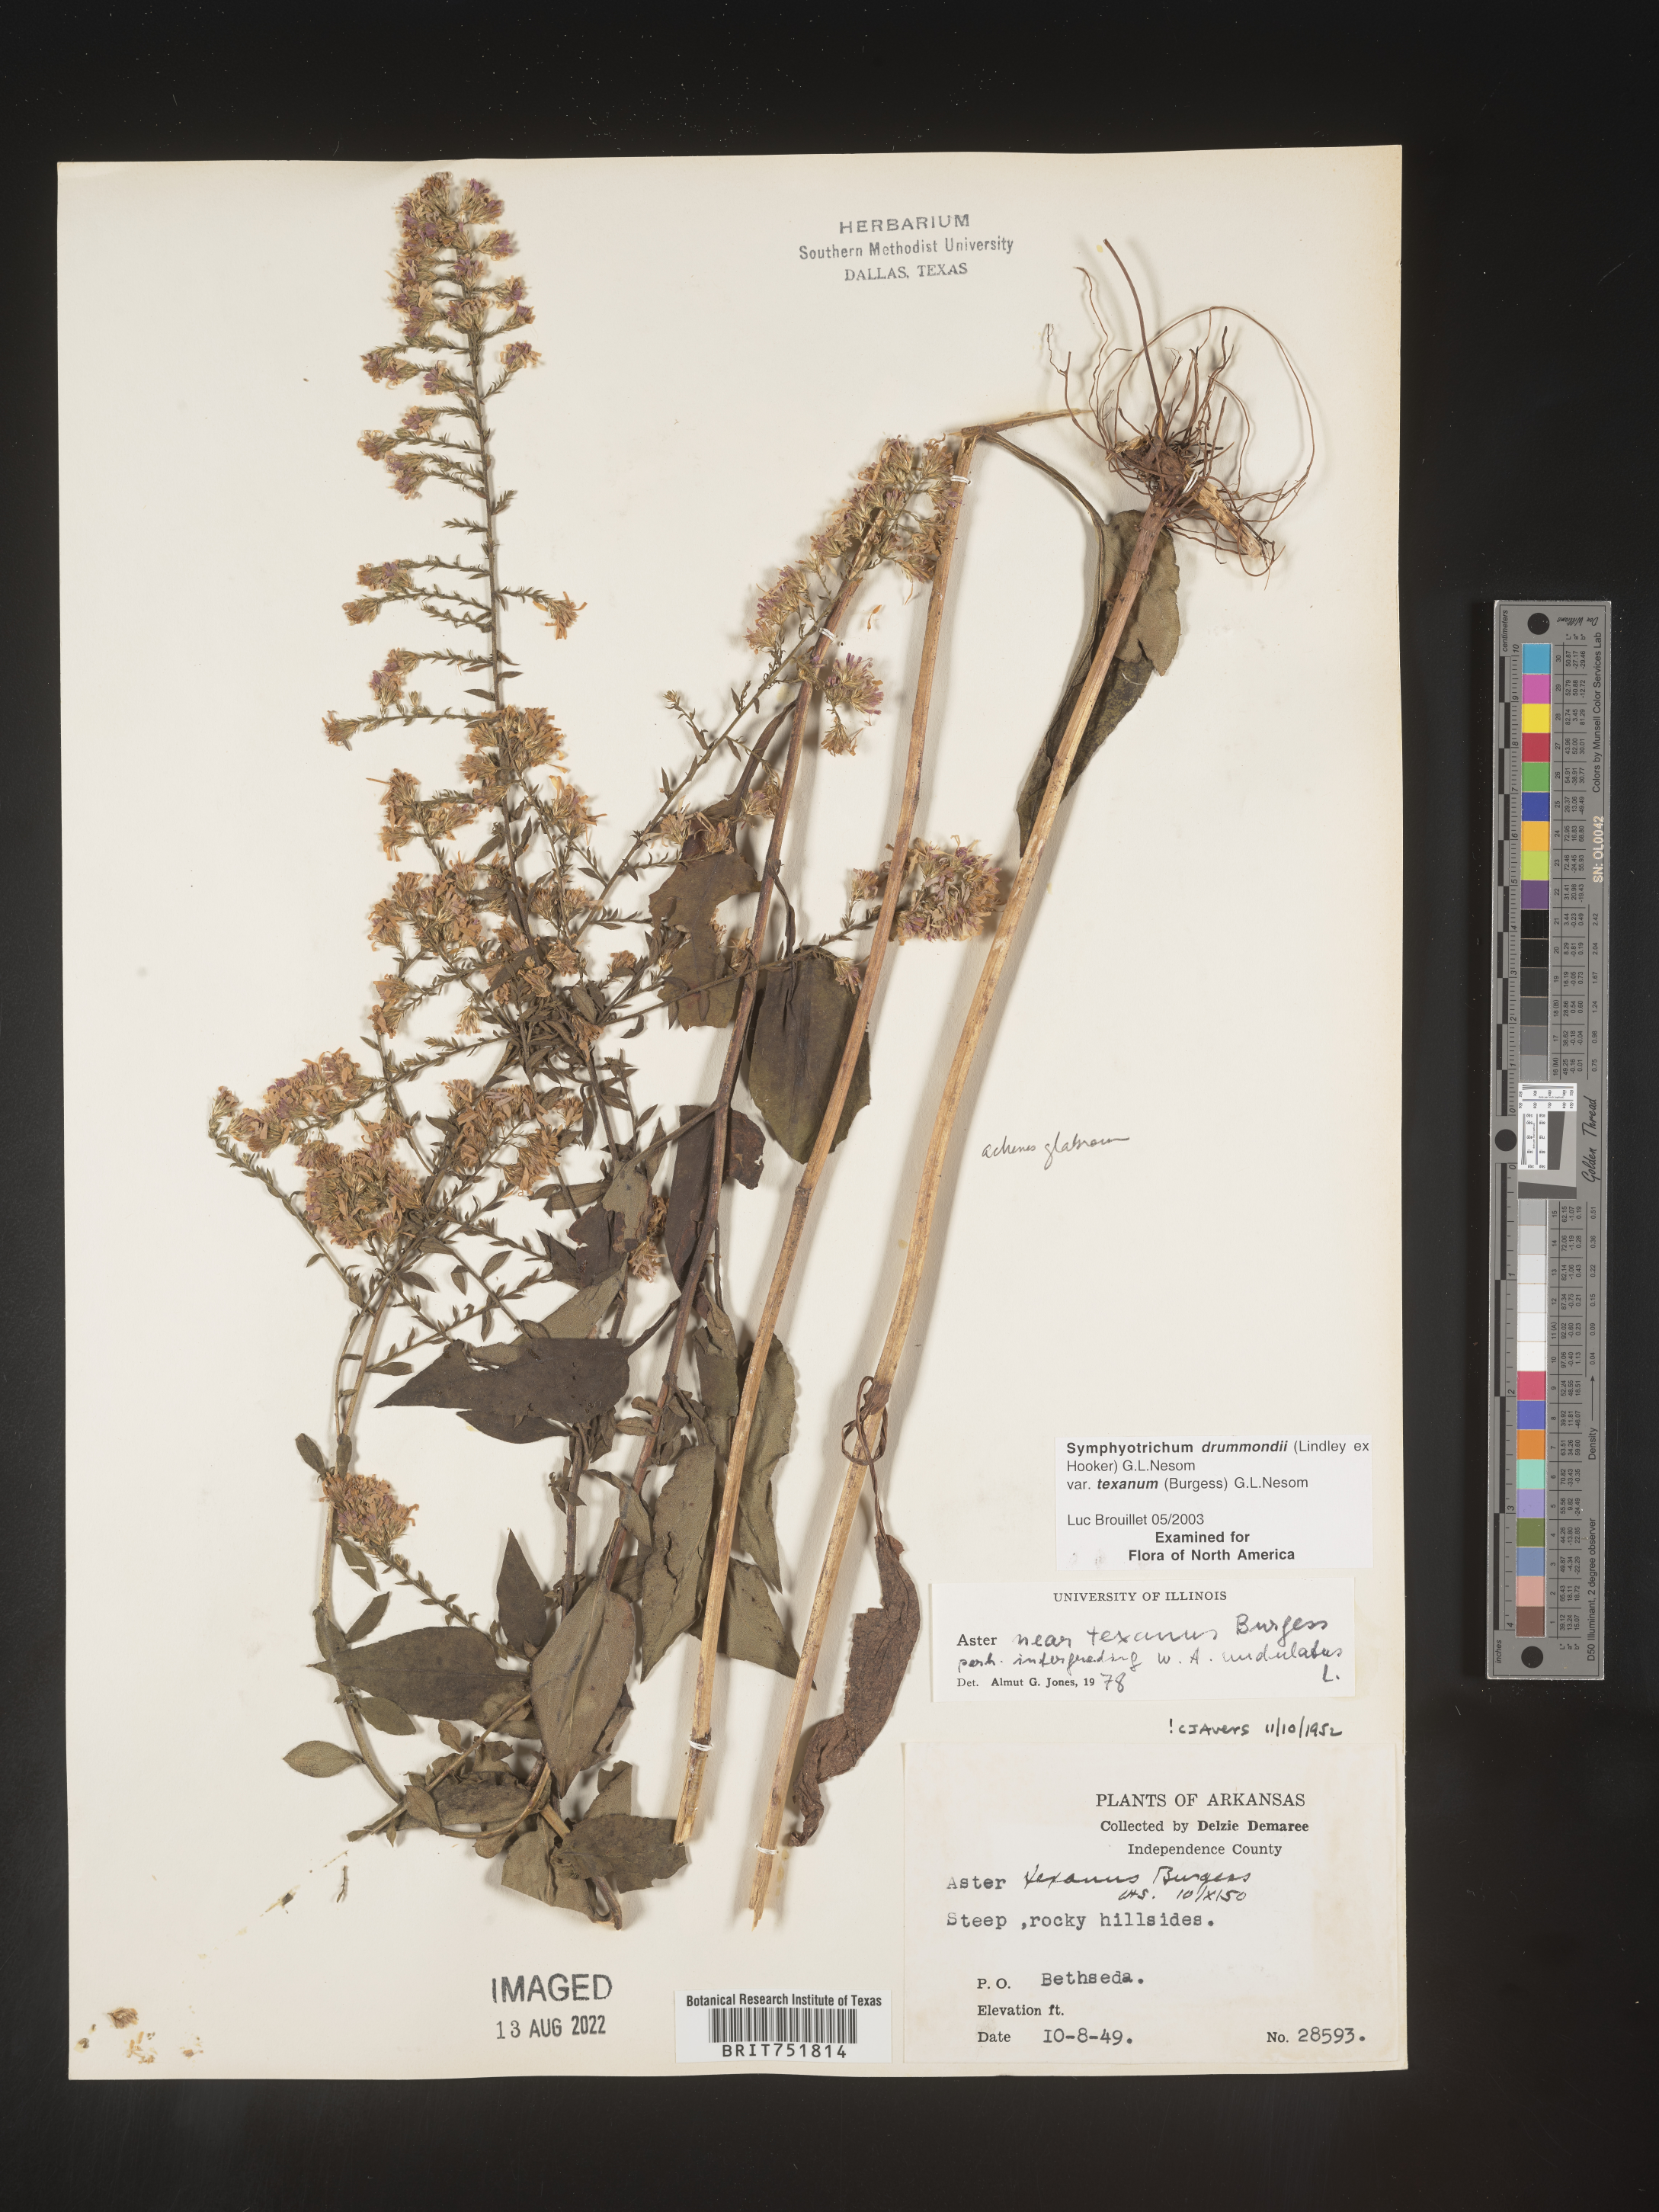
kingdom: Plantae
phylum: Tracheophyta
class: Magnoliopsida
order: Asterales
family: Asteraceae
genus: Symphyotrichum
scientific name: Symphyotrichum drummondii
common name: Drummond's aster
